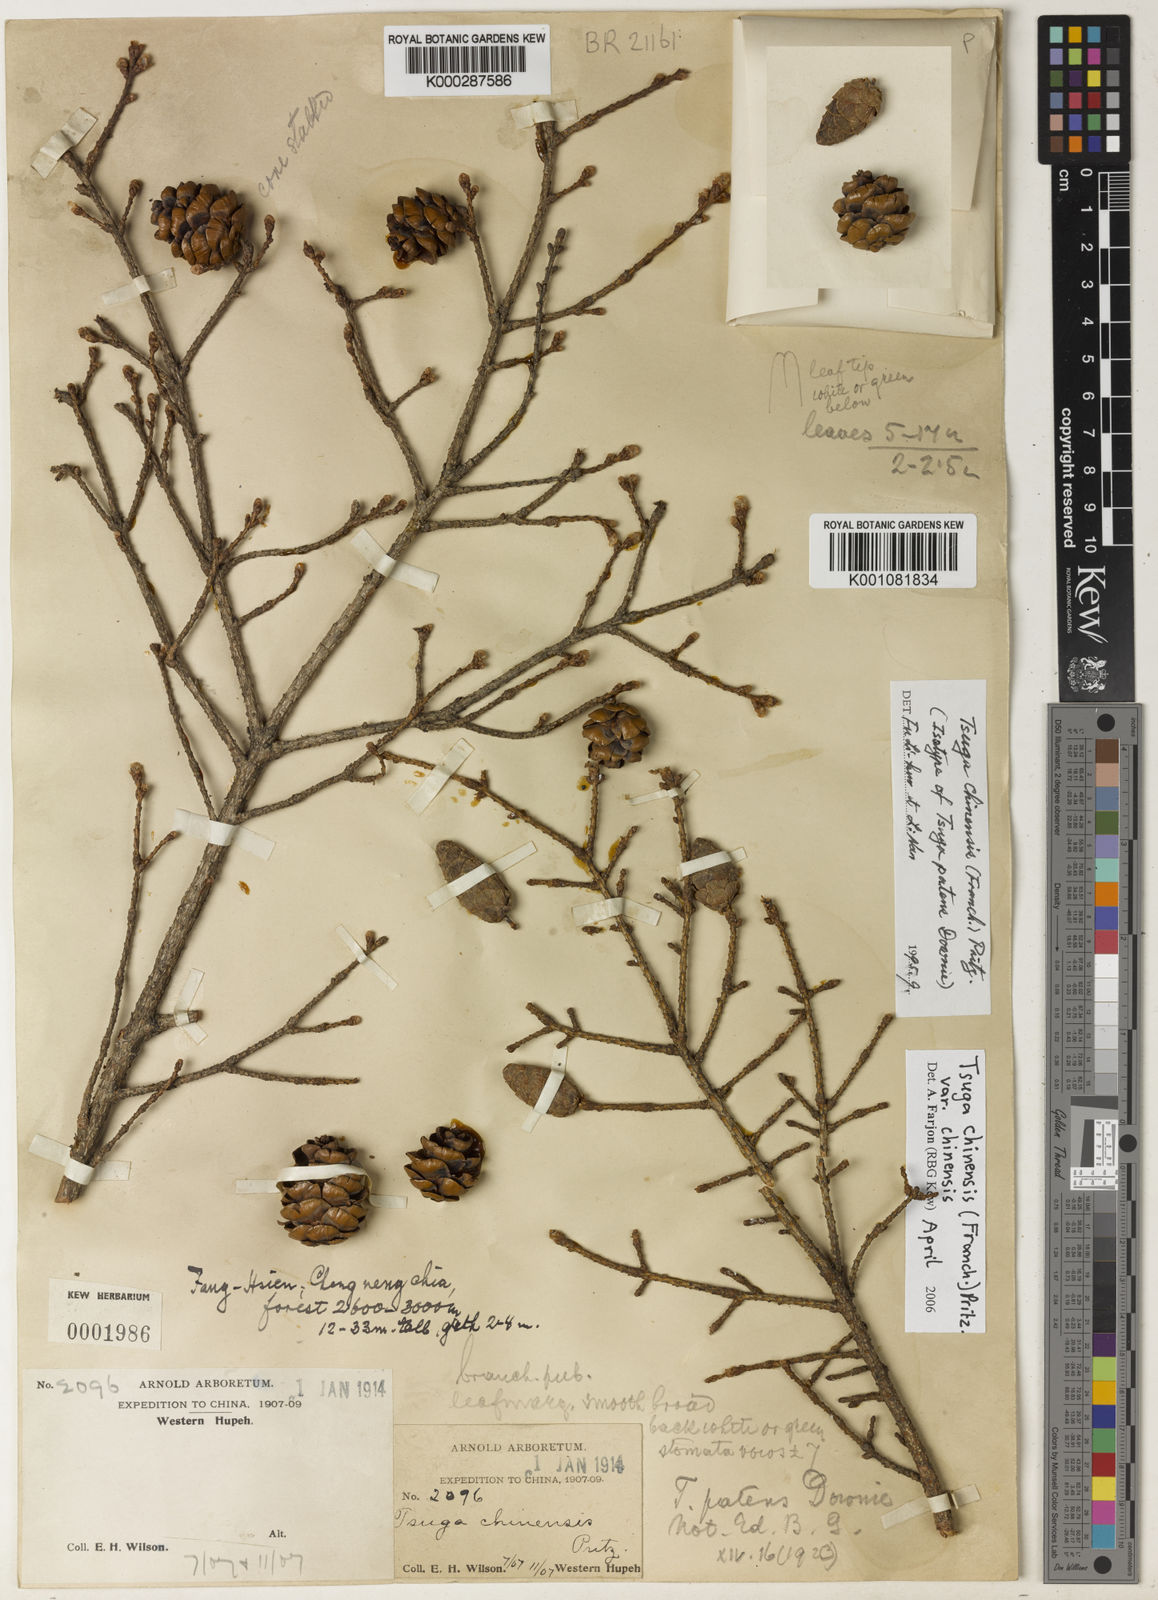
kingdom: Plantae
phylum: Tracheophyta
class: Pinopsida
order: Pinales
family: Pinaceae
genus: Tsuga
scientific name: Tsuga chinensis
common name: Chinese hemlock
